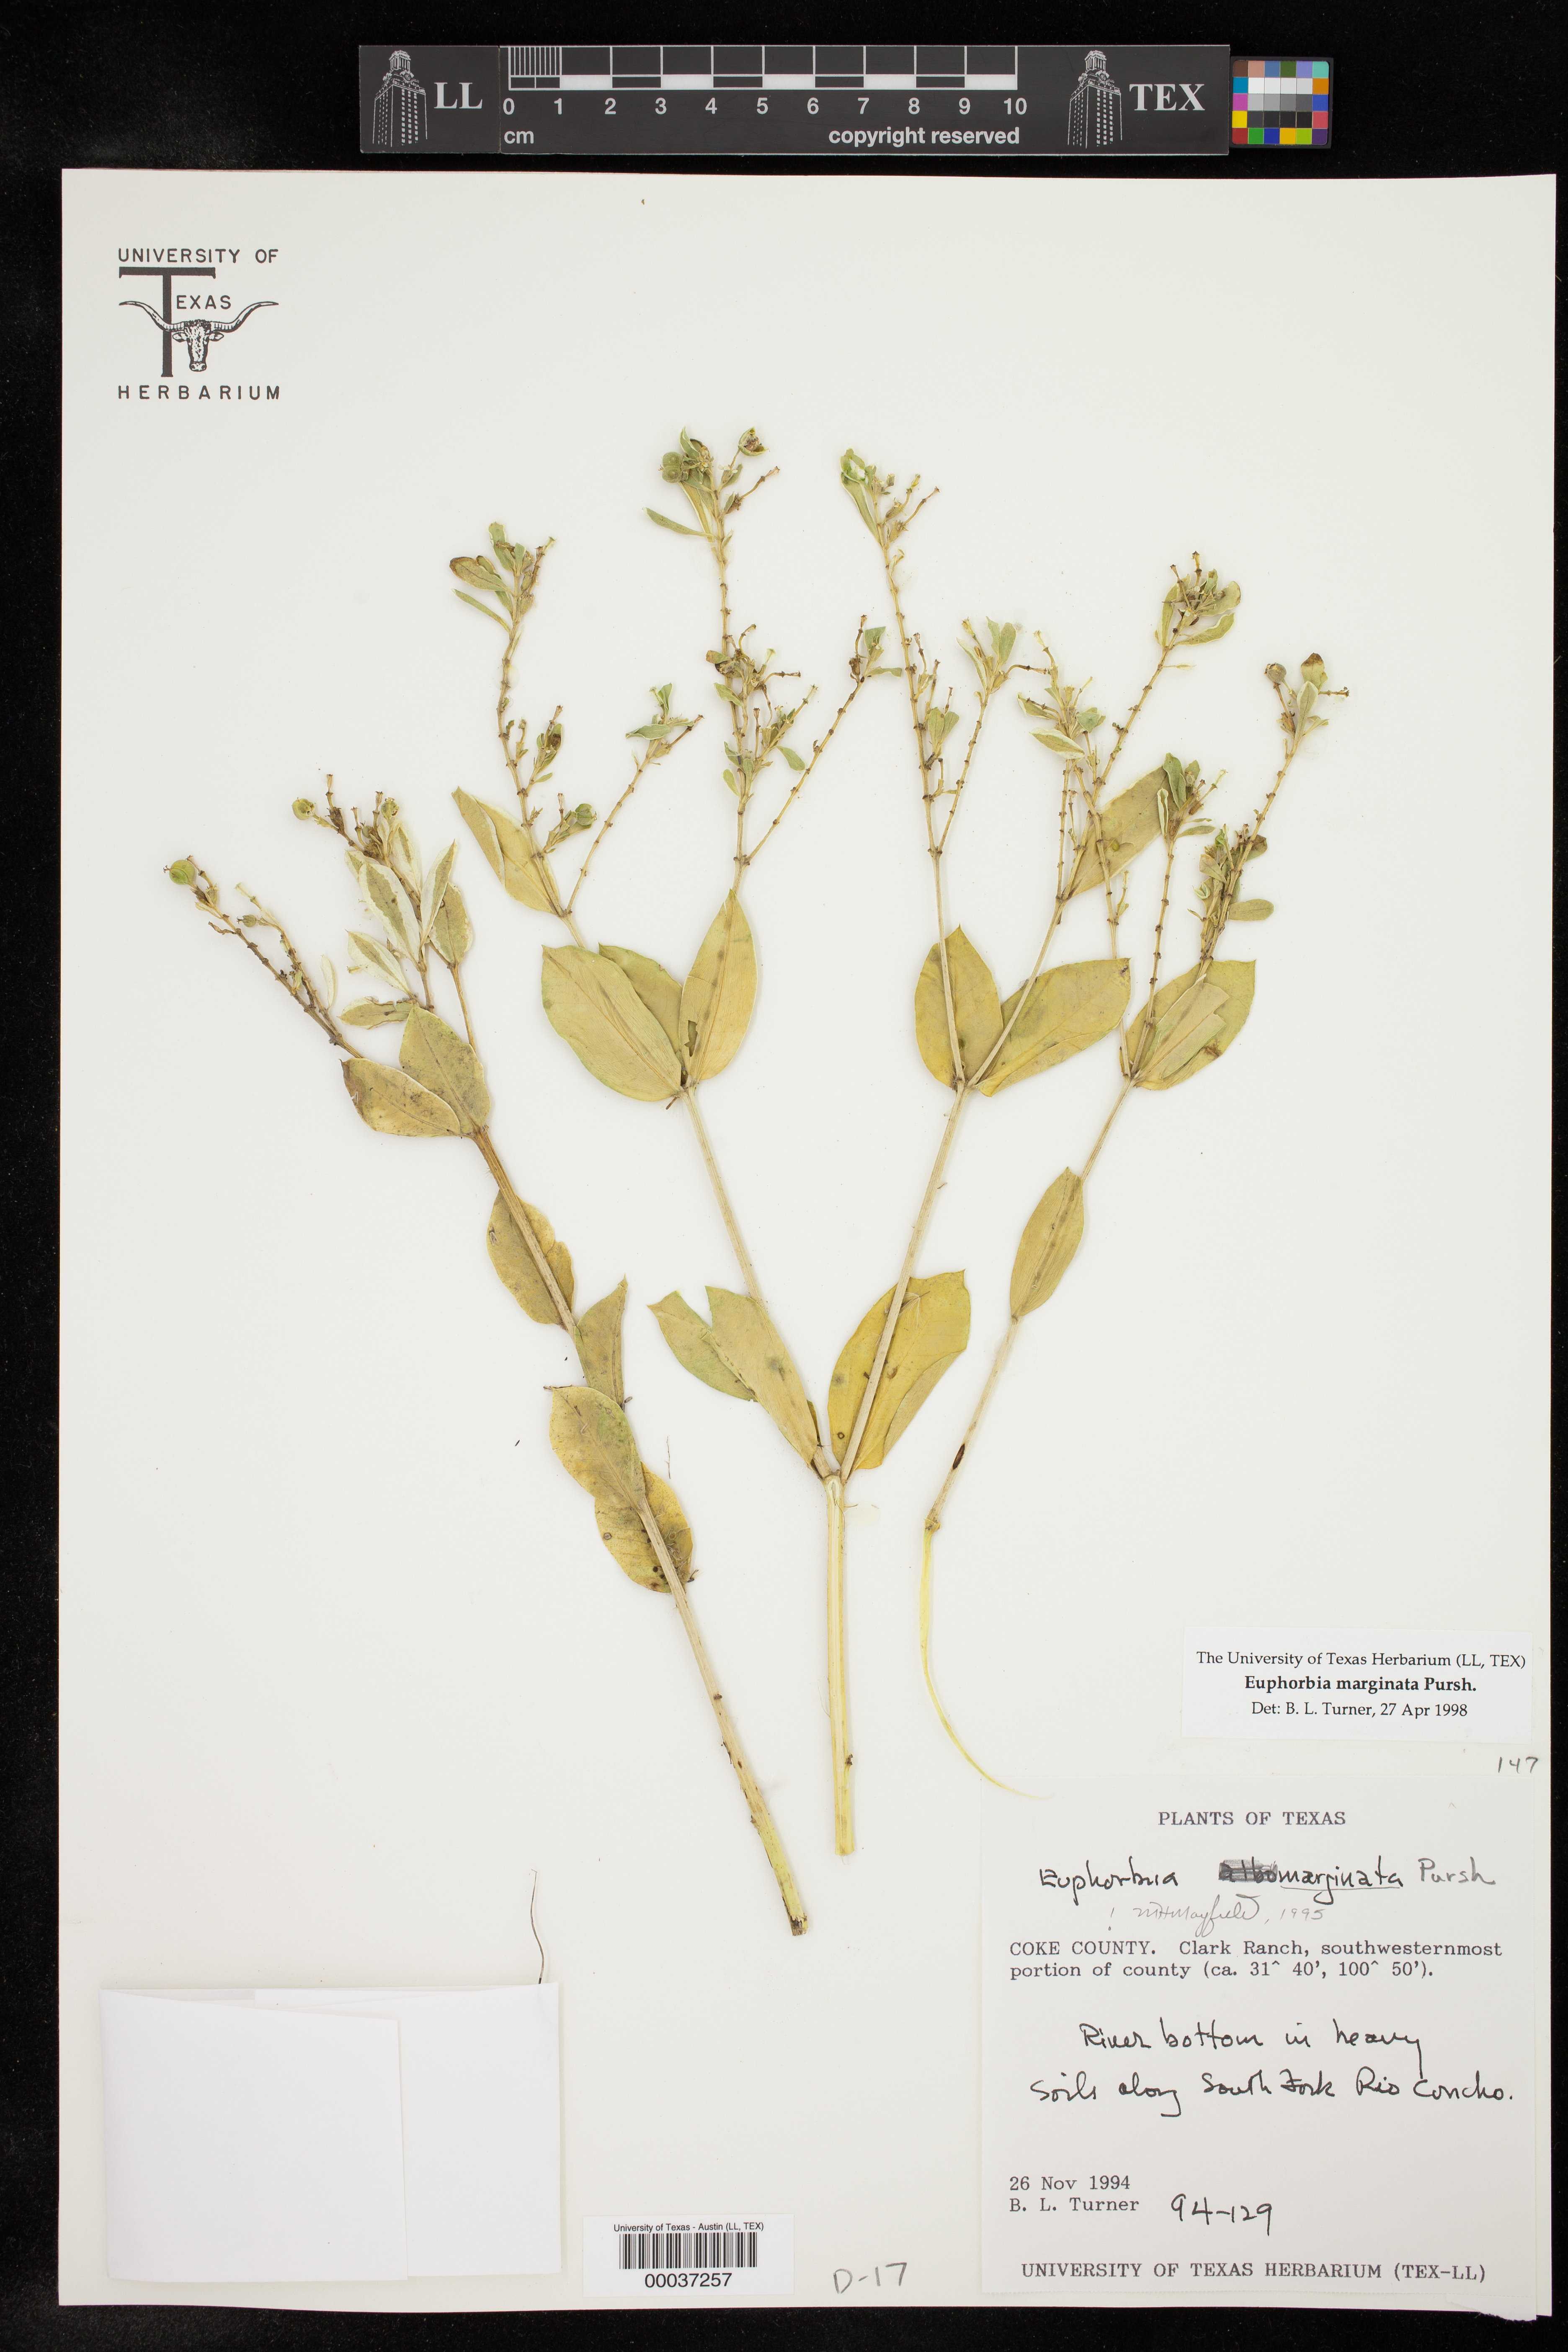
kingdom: Plantae
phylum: Tracheophyta
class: Magnoliopsida
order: Malpighiales
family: Euphorbiaceae
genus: Euphorbia
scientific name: Euphorbia marginata
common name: Ghostweed
